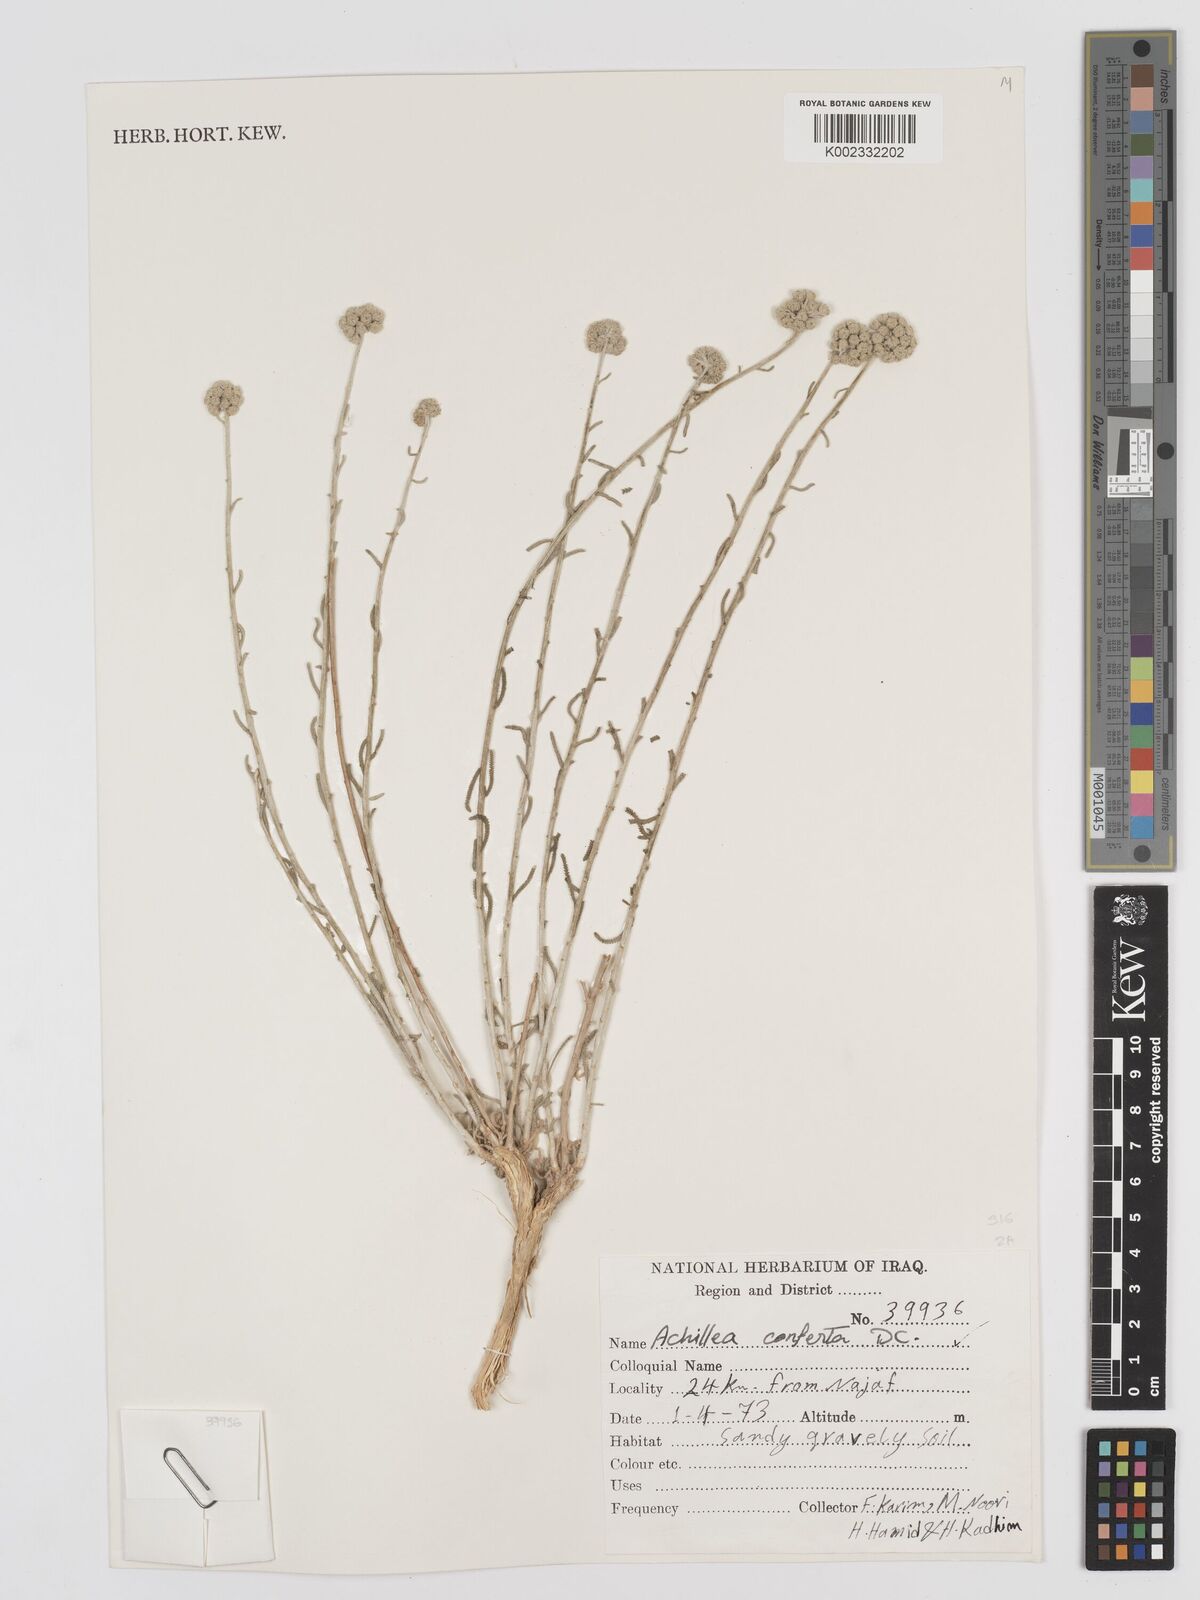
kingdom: Plantae
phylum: Tracheophyta
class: Magnoliopsida
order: Asterales
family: Asteraceae
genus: Achillea
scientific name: Achillea conferta
